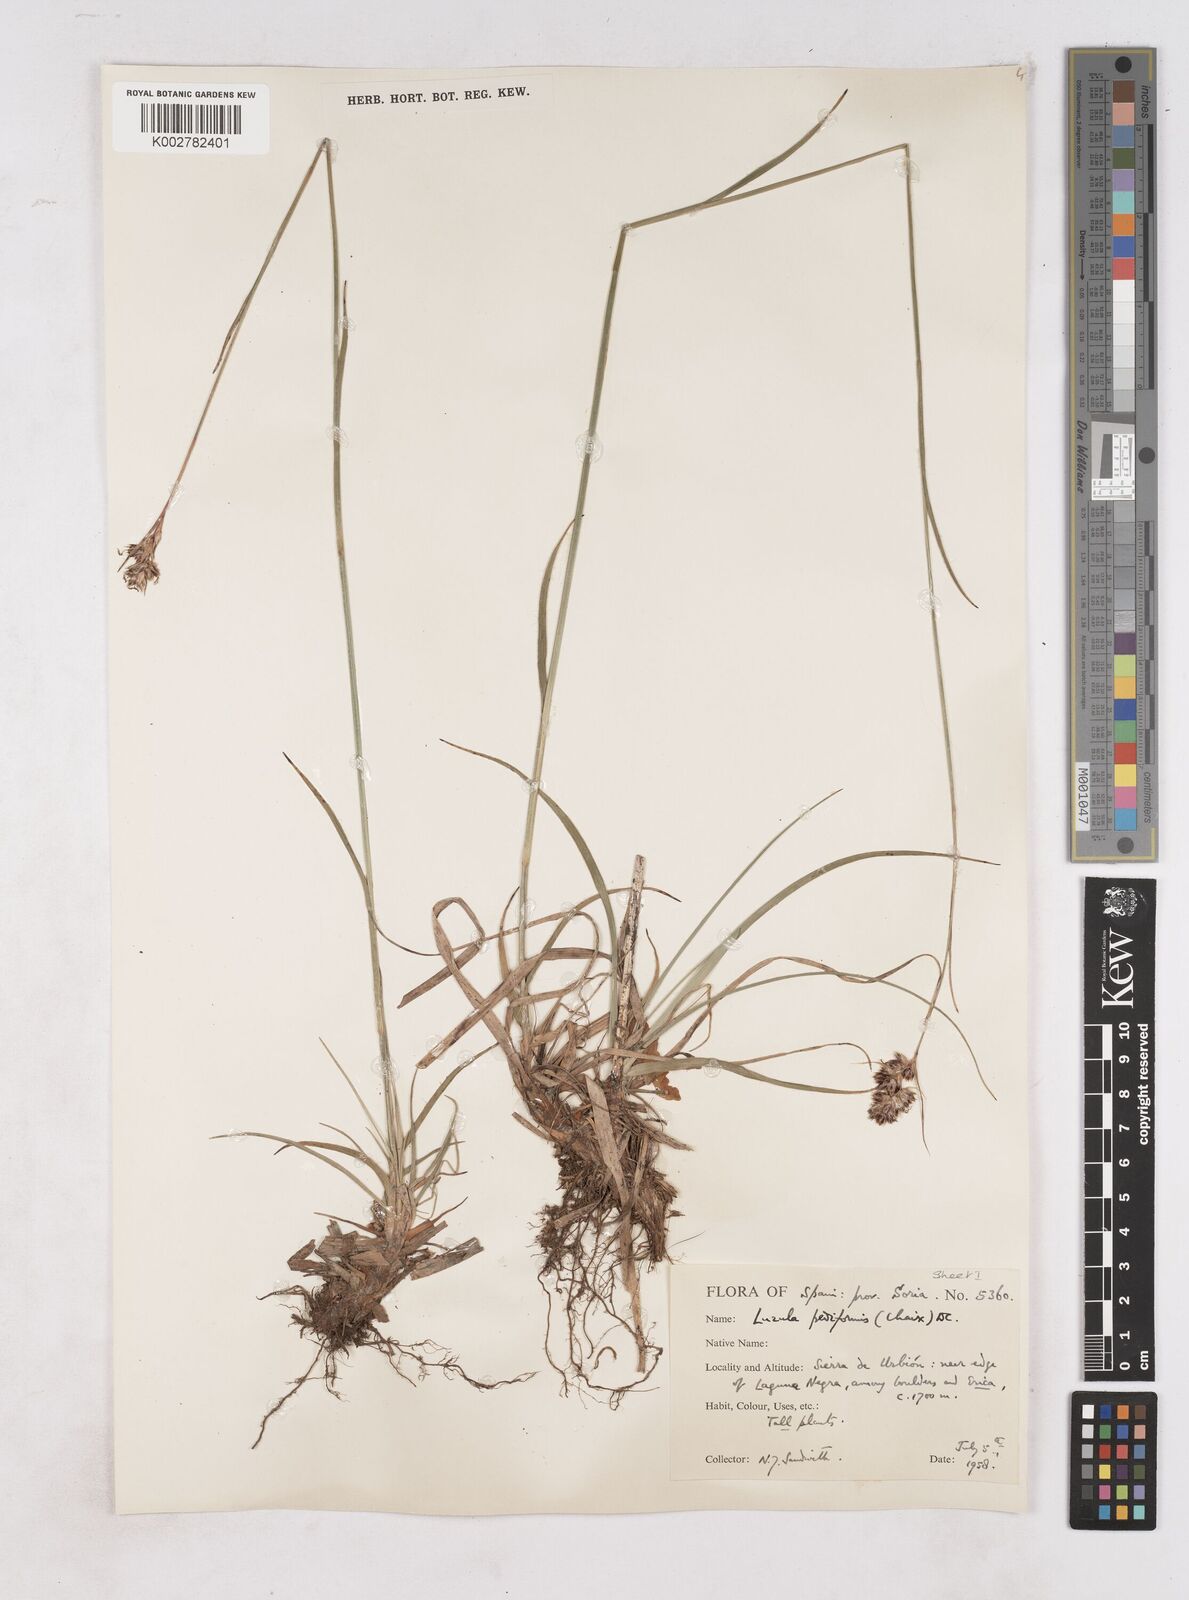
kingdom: Plantae
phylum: Tracheophyta
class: Liliopsida
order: Poales
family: Juncaceae
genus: Luzula
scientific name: Luzula pediformis
